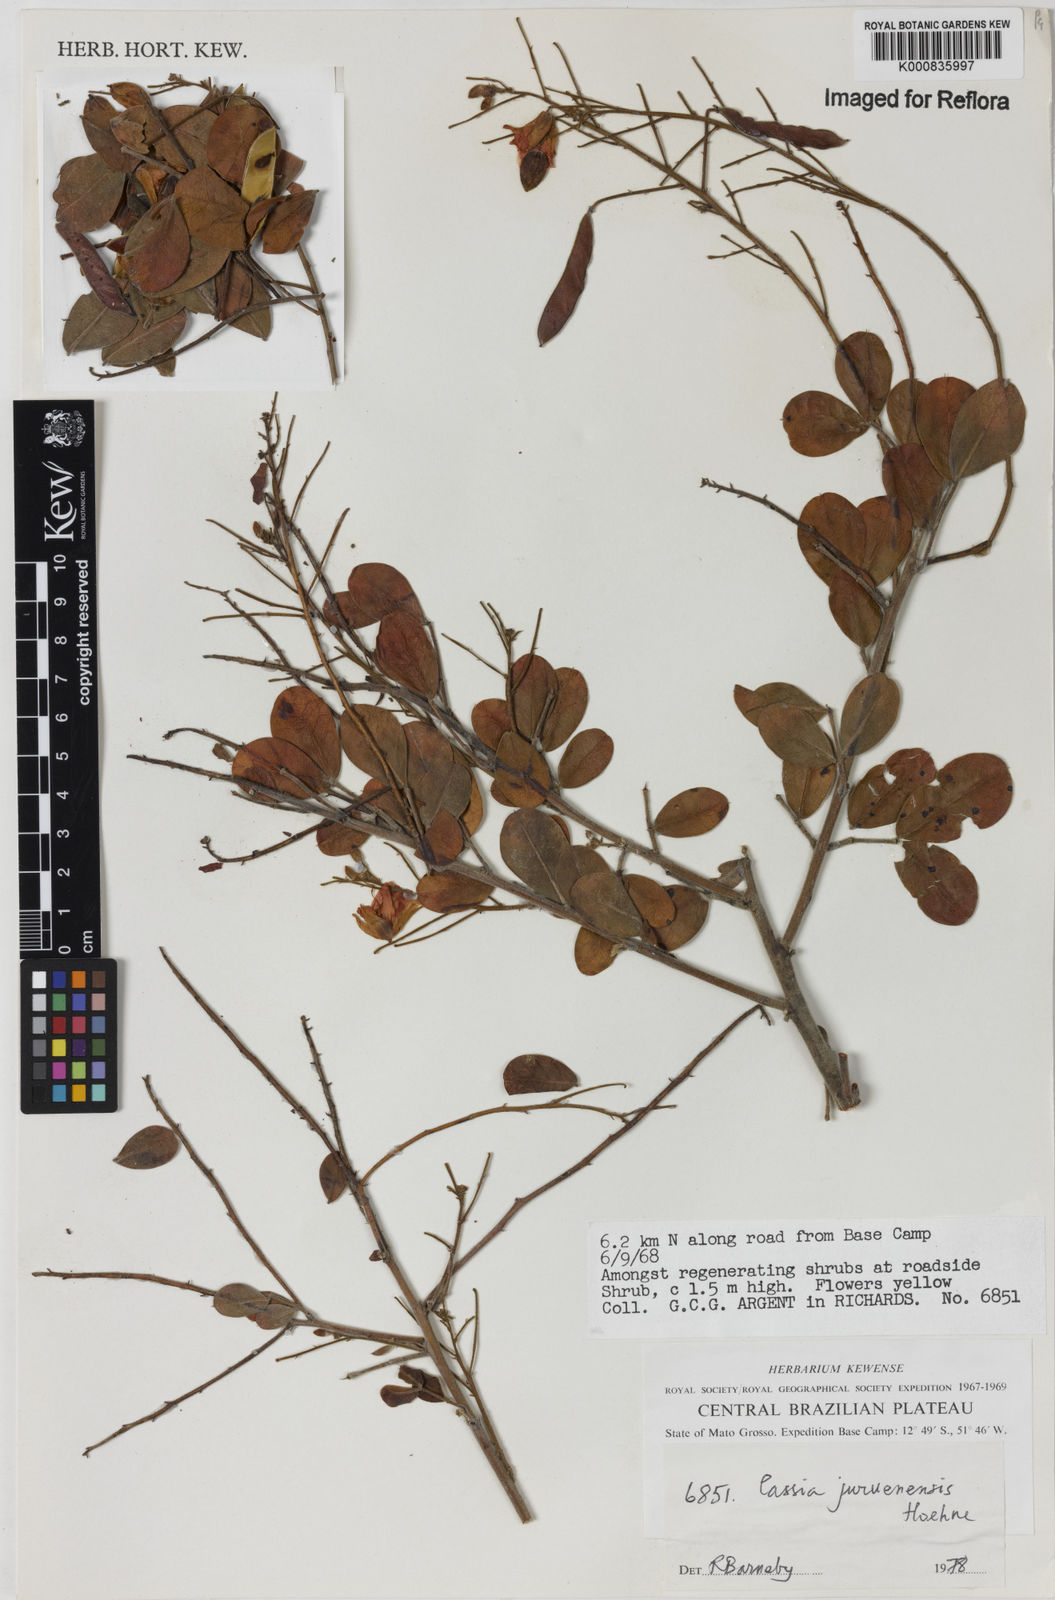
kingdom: Plantae
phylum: Tracheophyta
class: Magnoliopsida
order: Fabales
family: Fabaceae
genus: Chamaecrista
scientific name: Chamaecrista juruenensis
